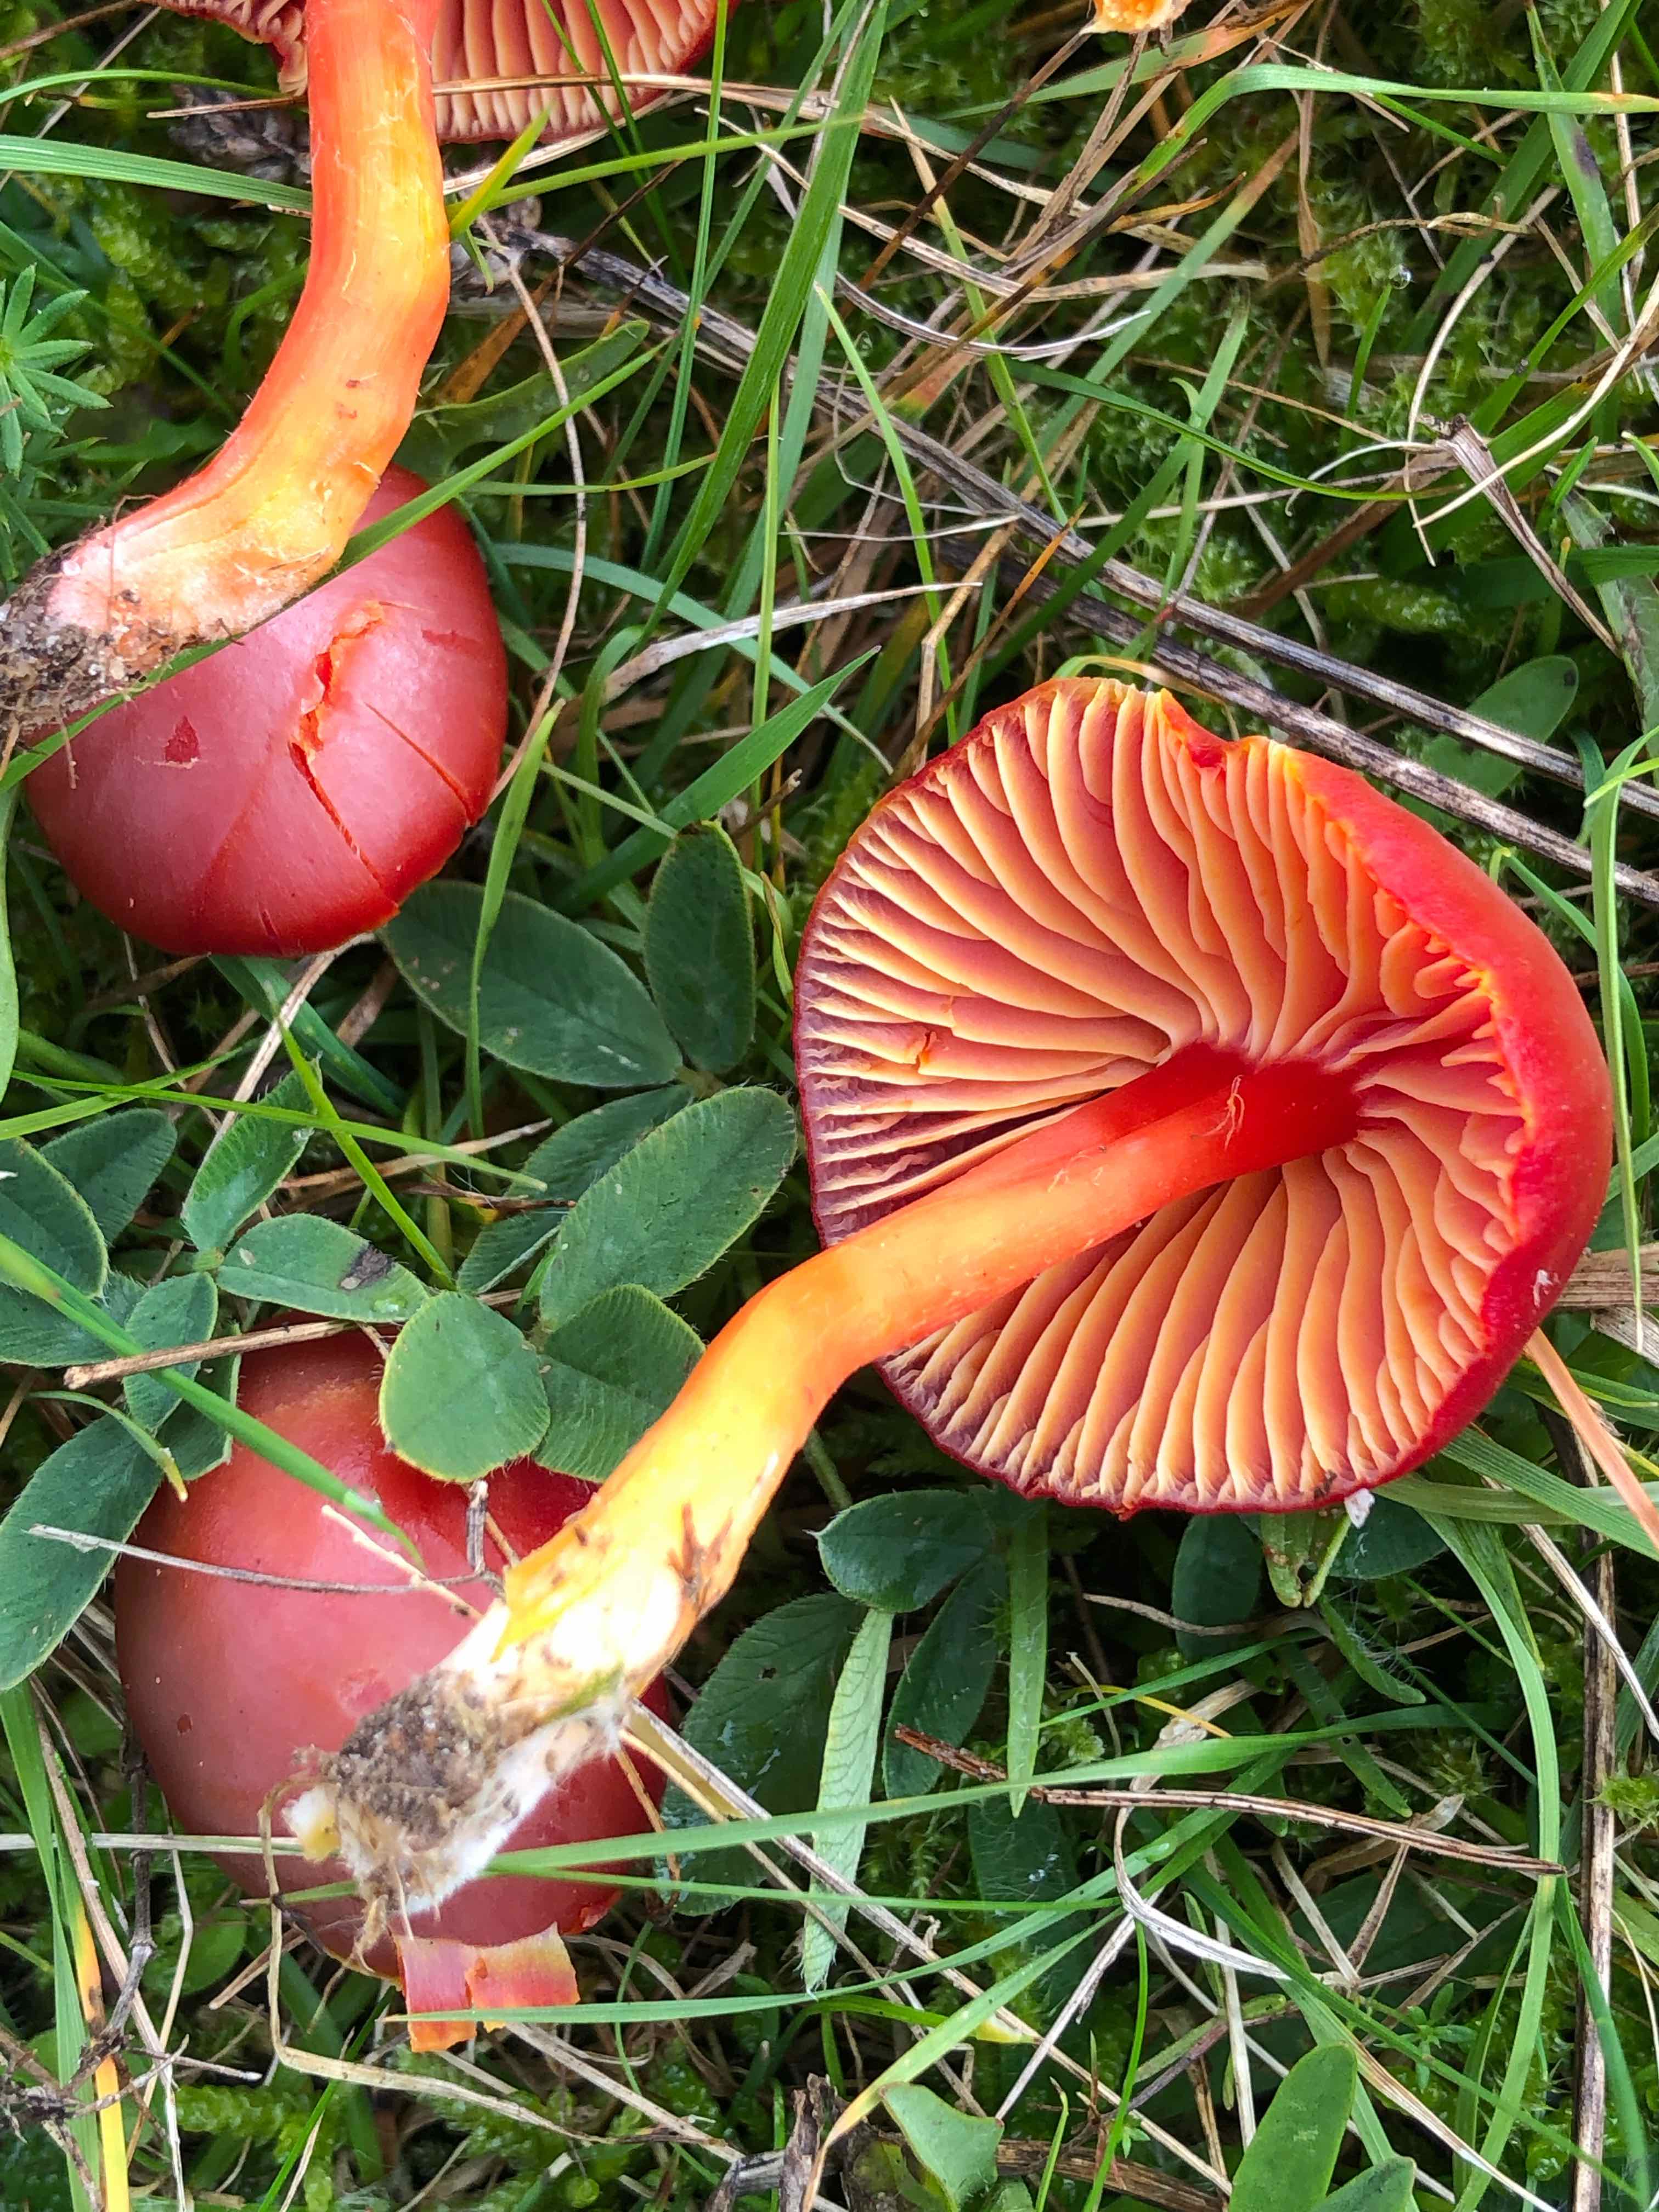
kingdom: Fungi
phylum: Basidiomycota
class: Agaricomycetes
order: Agaricales
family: Hygrophoraceae
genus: Hygrocybe
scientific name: Hygrocybe coccinea
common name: cinnober-vokshat
